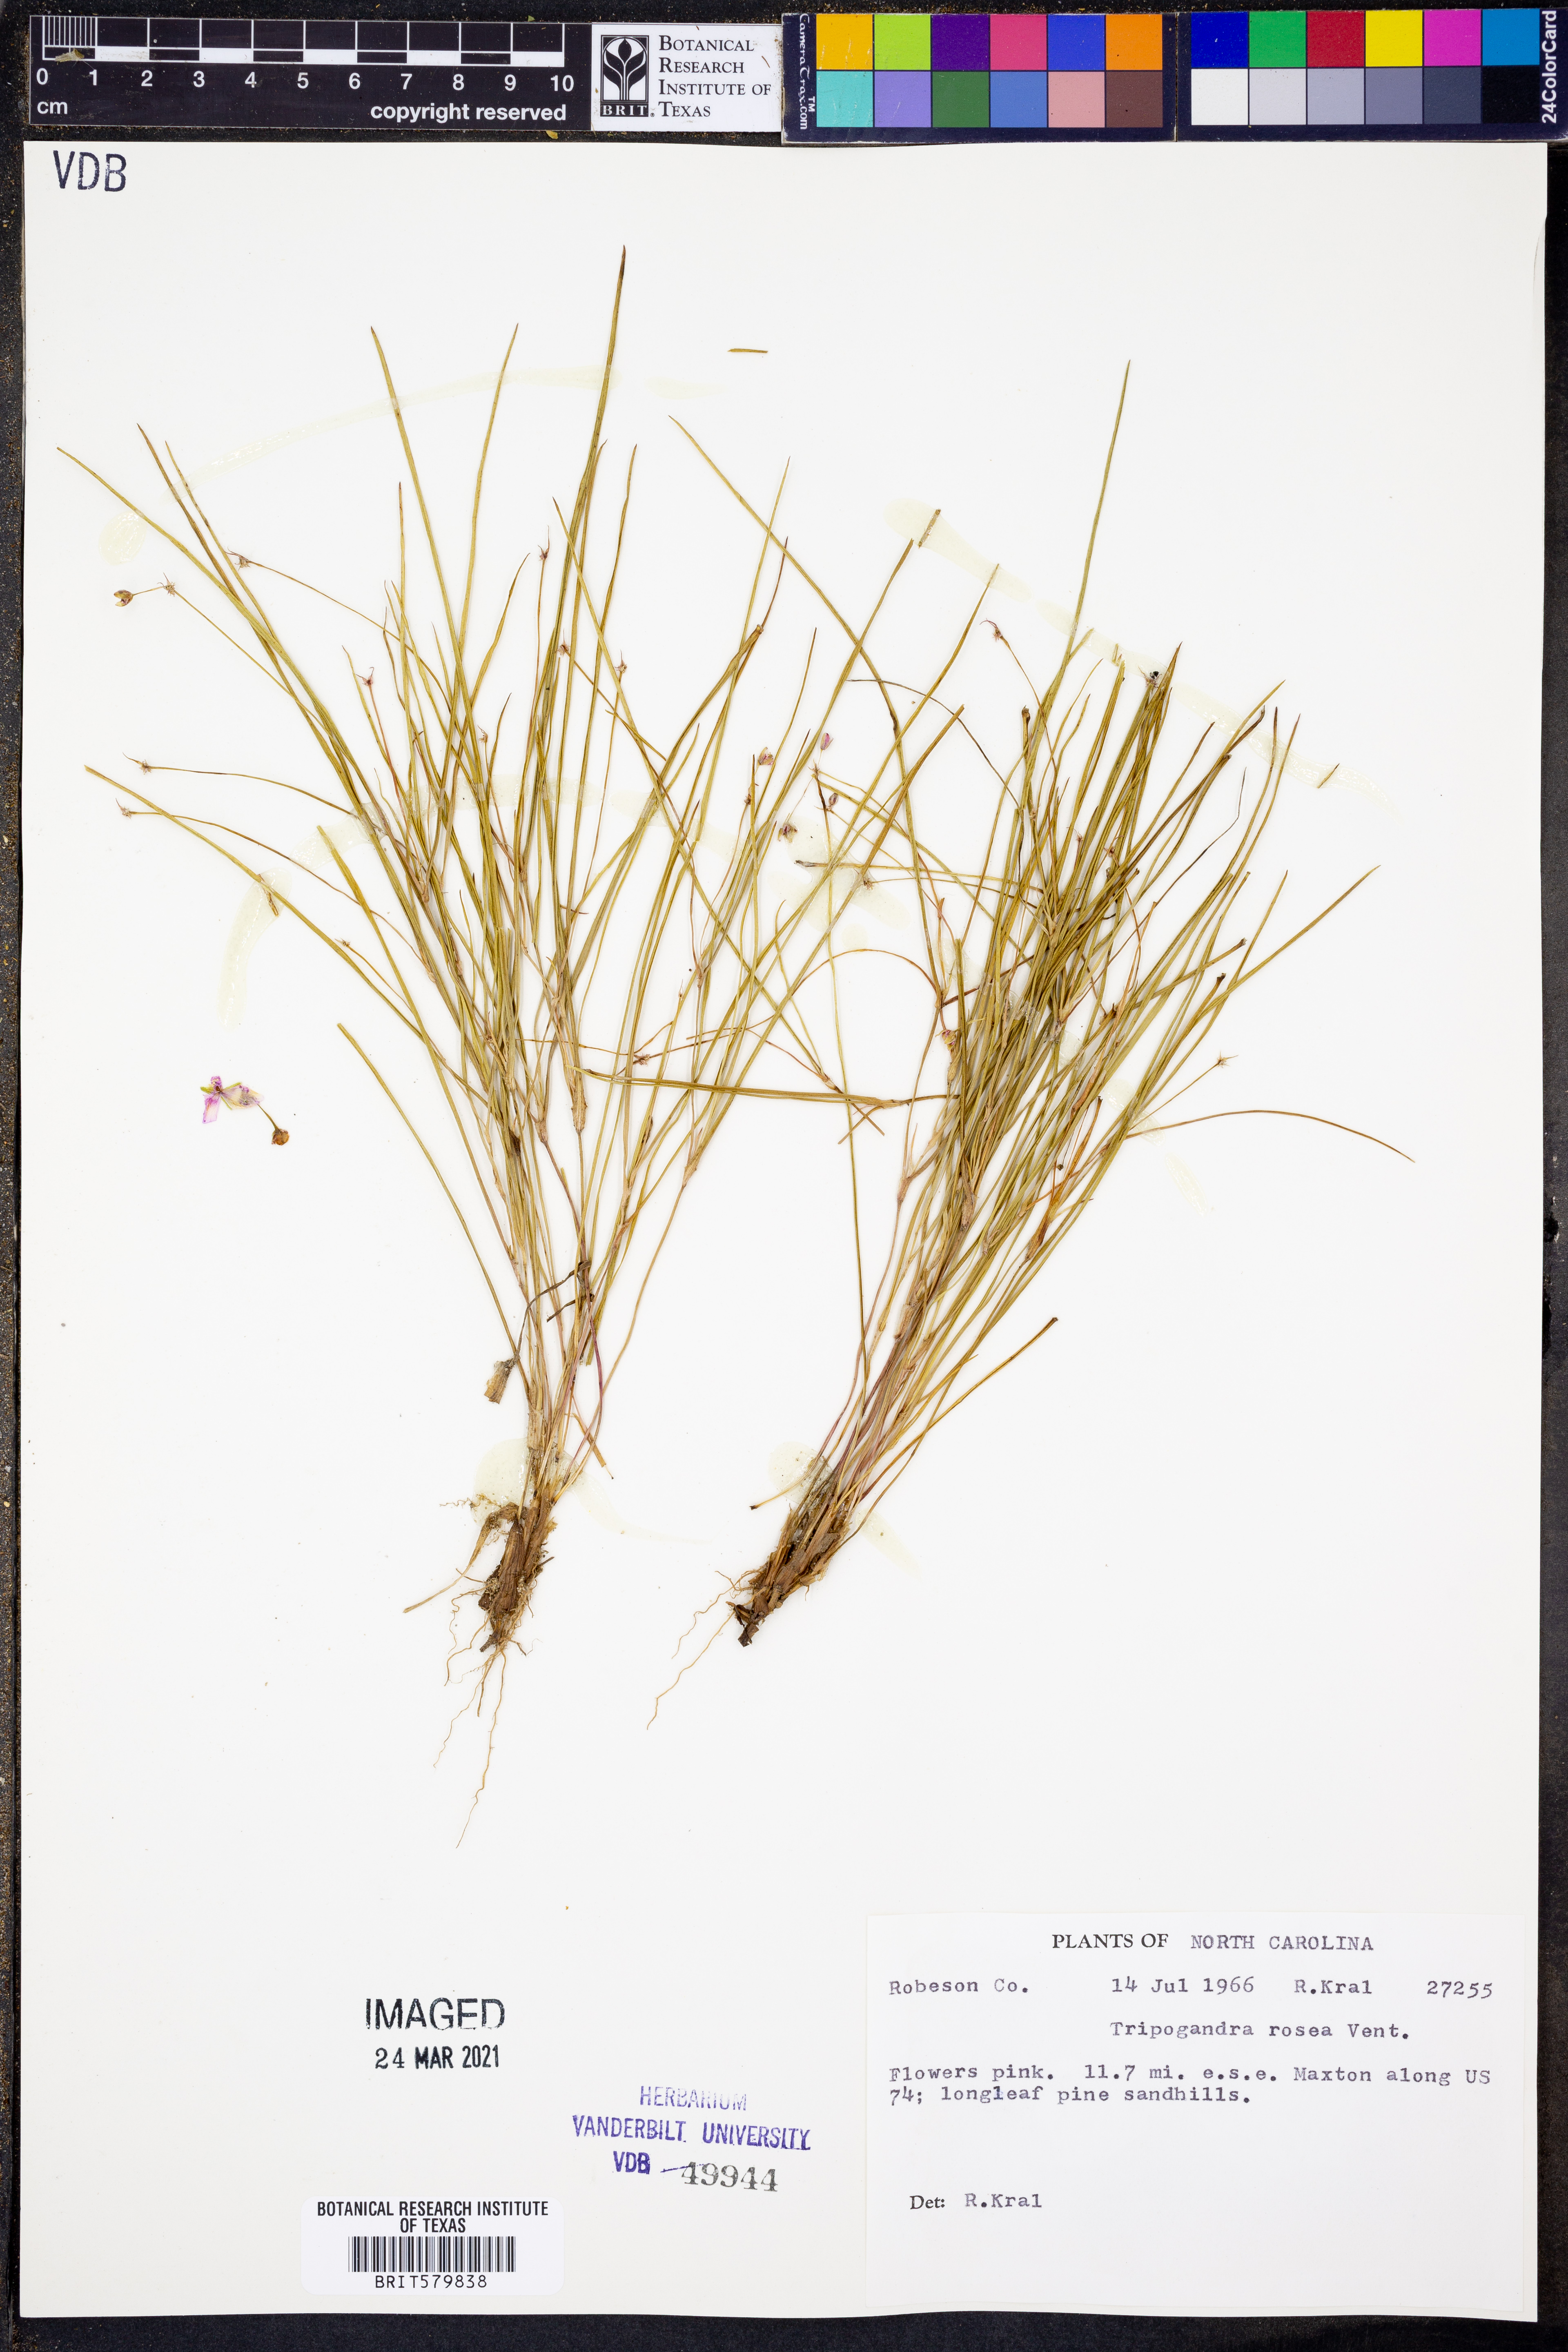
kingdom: Plantae
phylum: Tracheophyta
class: Liliopsida
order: Commelinales
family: Commelinaceae
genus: Callisia
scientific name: Callisia rosea
